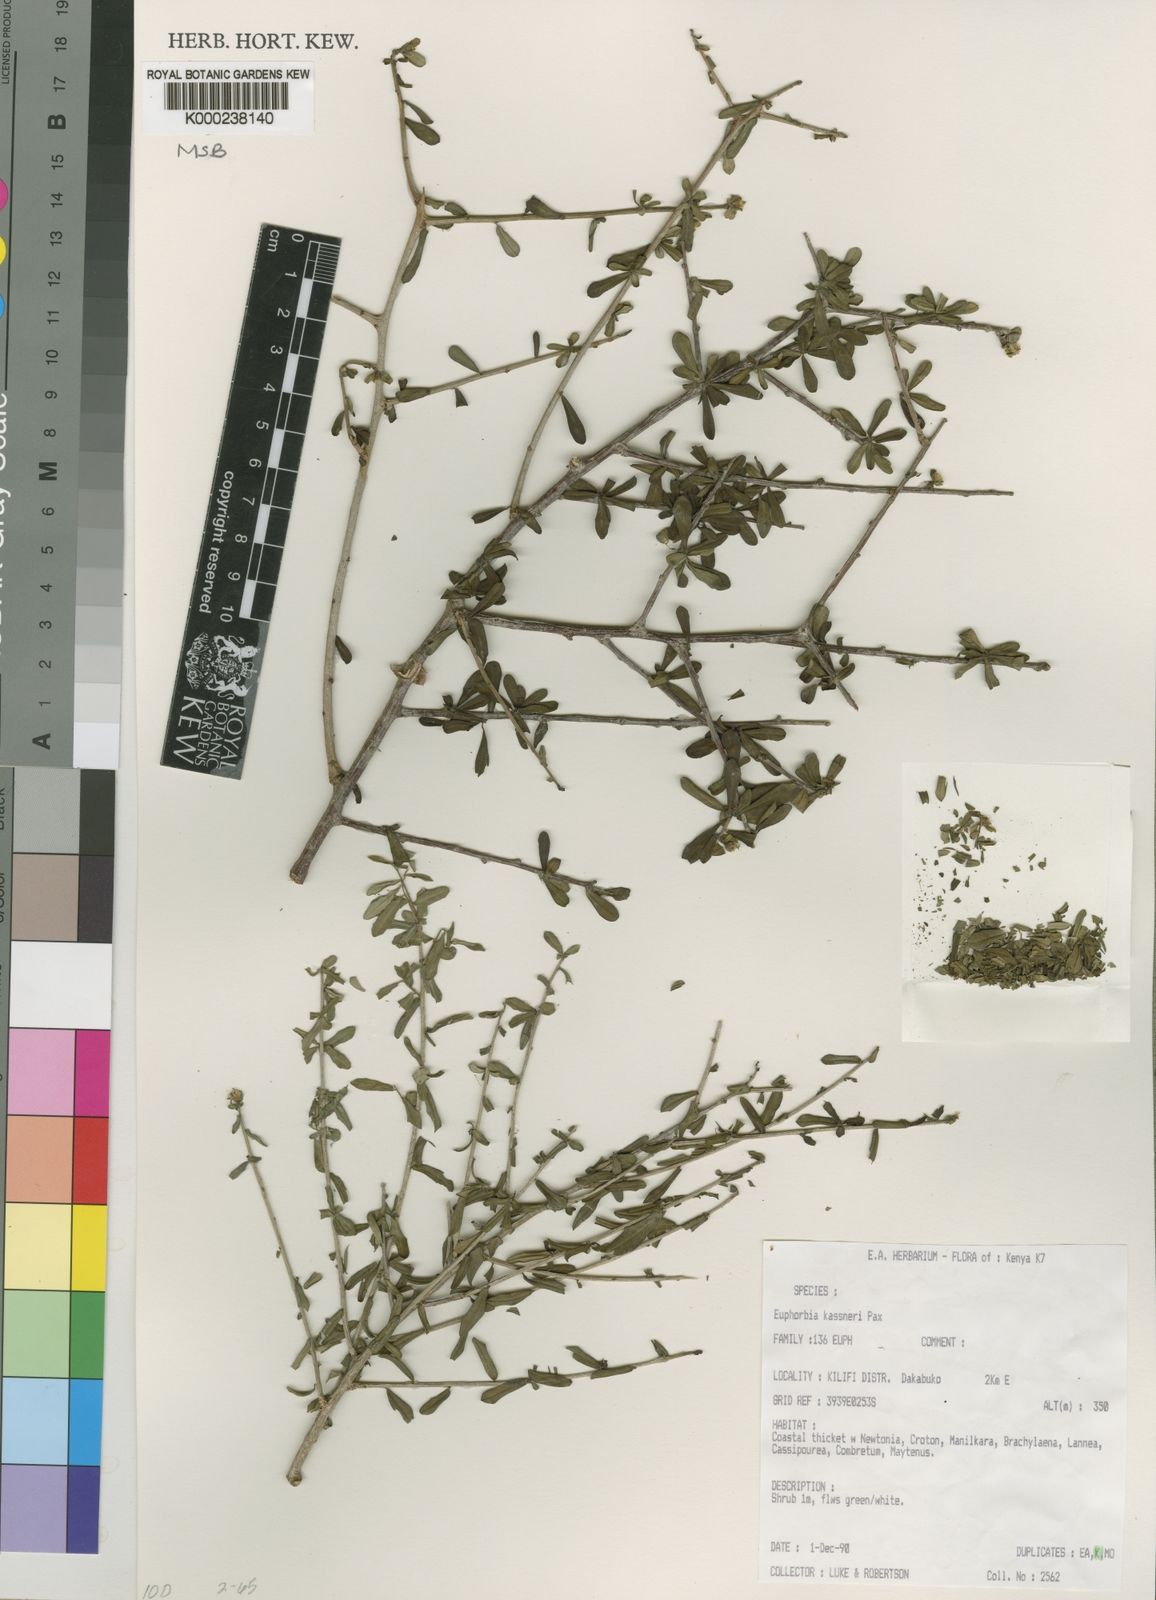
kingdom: Plantae
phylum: Tracheophyta
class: Magnoliopsida
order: Malpighiales
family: Euphorbiaceae
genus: Euphorbia
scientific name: Euphorbia kaessneri
